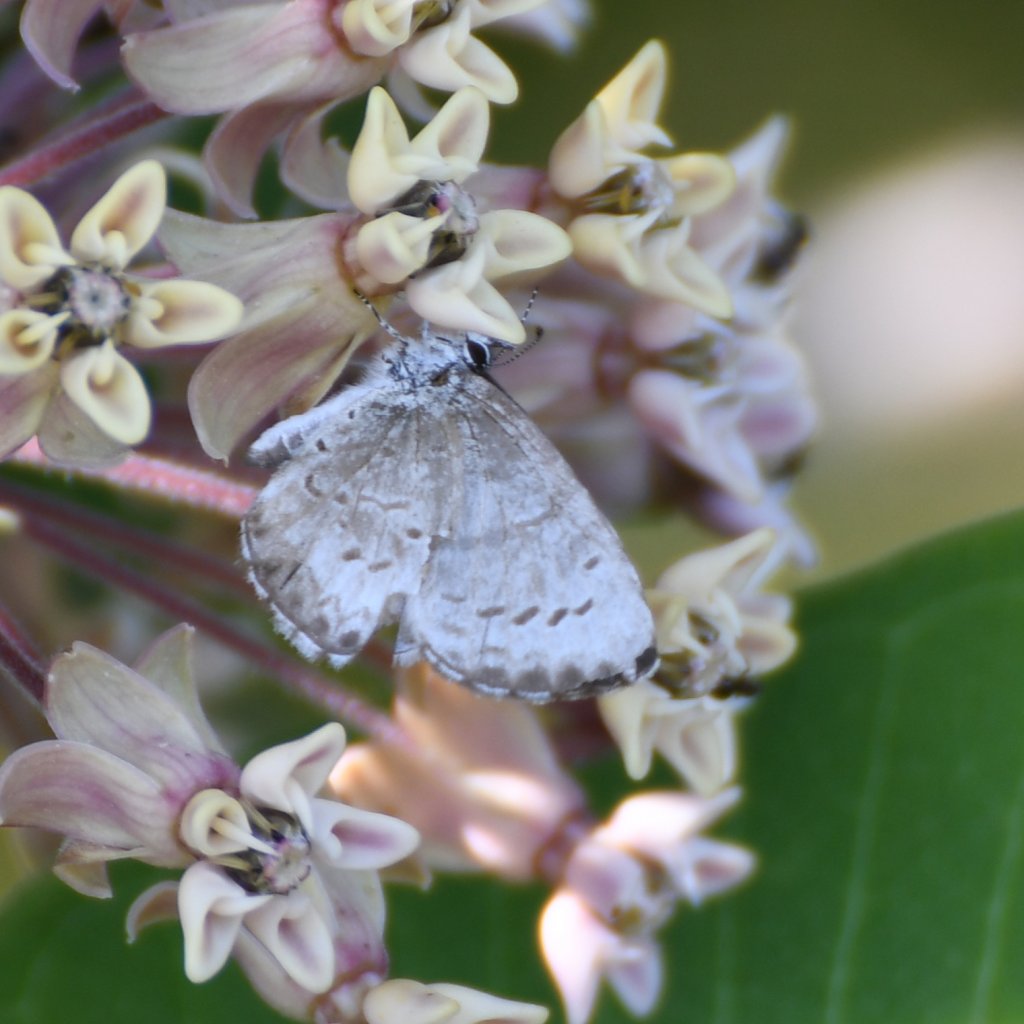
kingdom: Animalia
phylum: Arthropoda
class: Insecta
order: Lepidoptera
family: Lycaenidae
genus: Celastrina
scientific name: Celastrina lucia
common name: Northern Spring Azure
